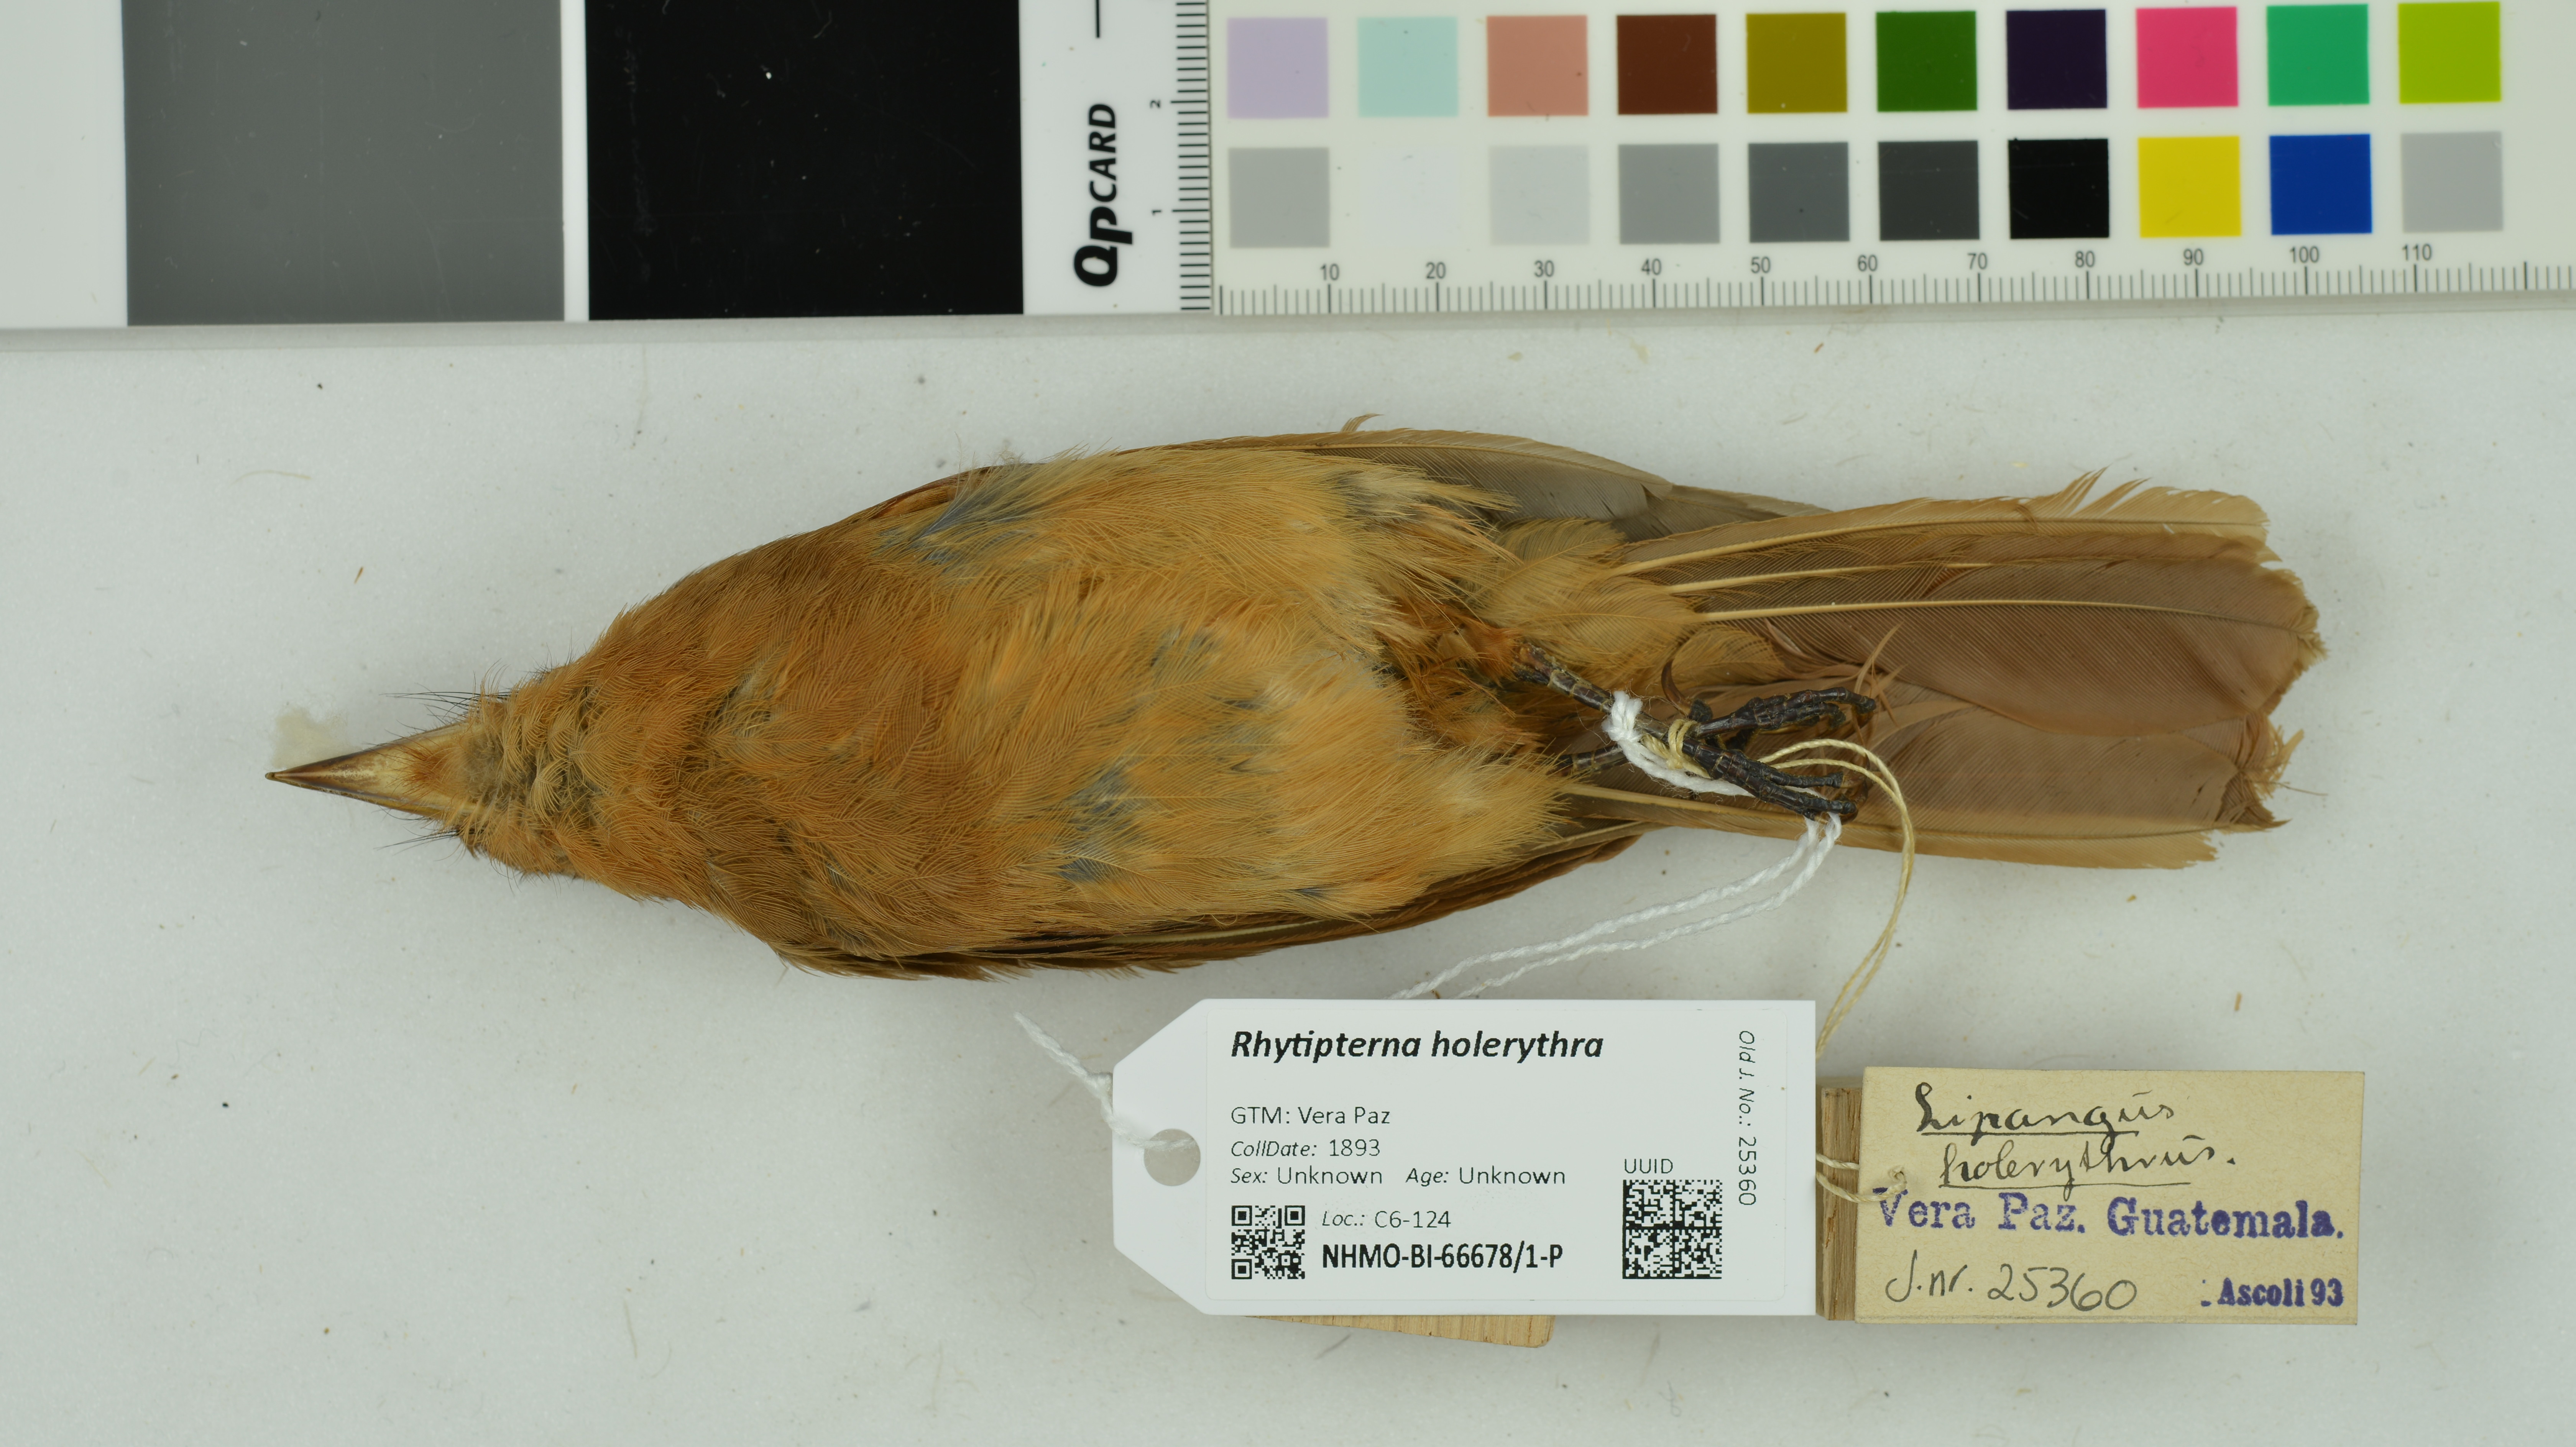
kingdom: Animalia
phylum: Chordata
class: Aves
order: Passeriformes
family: Tyrannidae
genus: Rhytipterna
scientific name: Rhytipterna holerythra
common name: Rufous mourner
